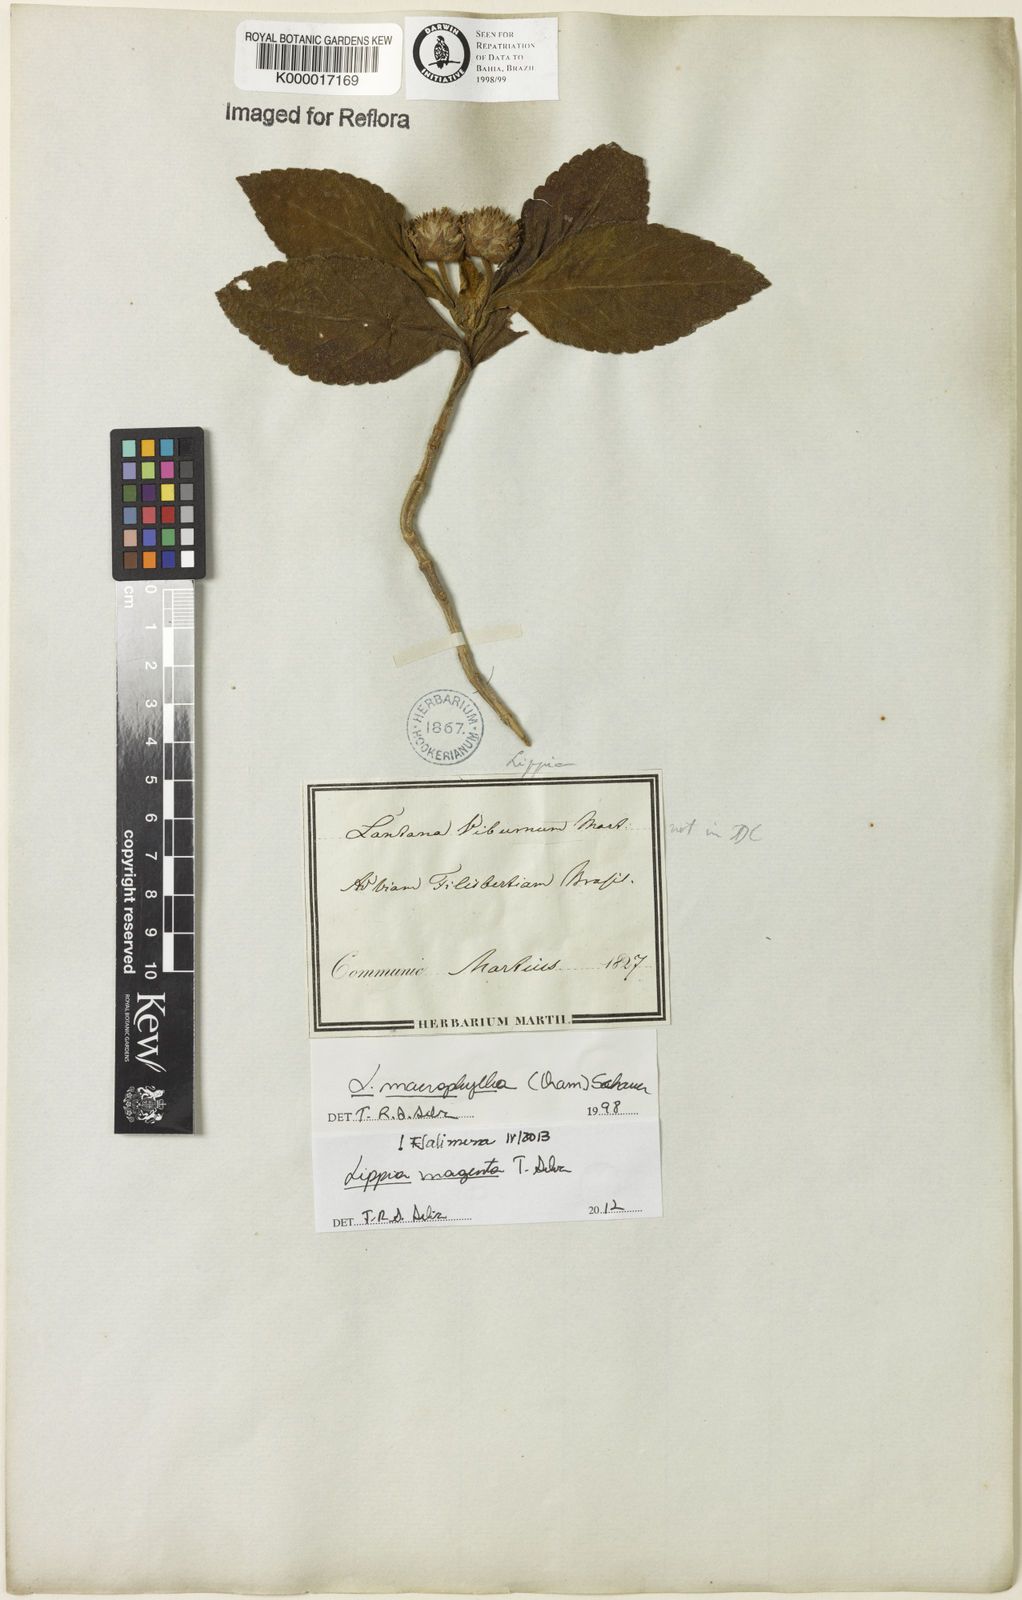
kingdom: Plantae
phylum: Tracheophyta
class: Magnoliopsida
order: Lamiales
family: Verbenaceae
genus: Lippia
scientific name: Lippia
